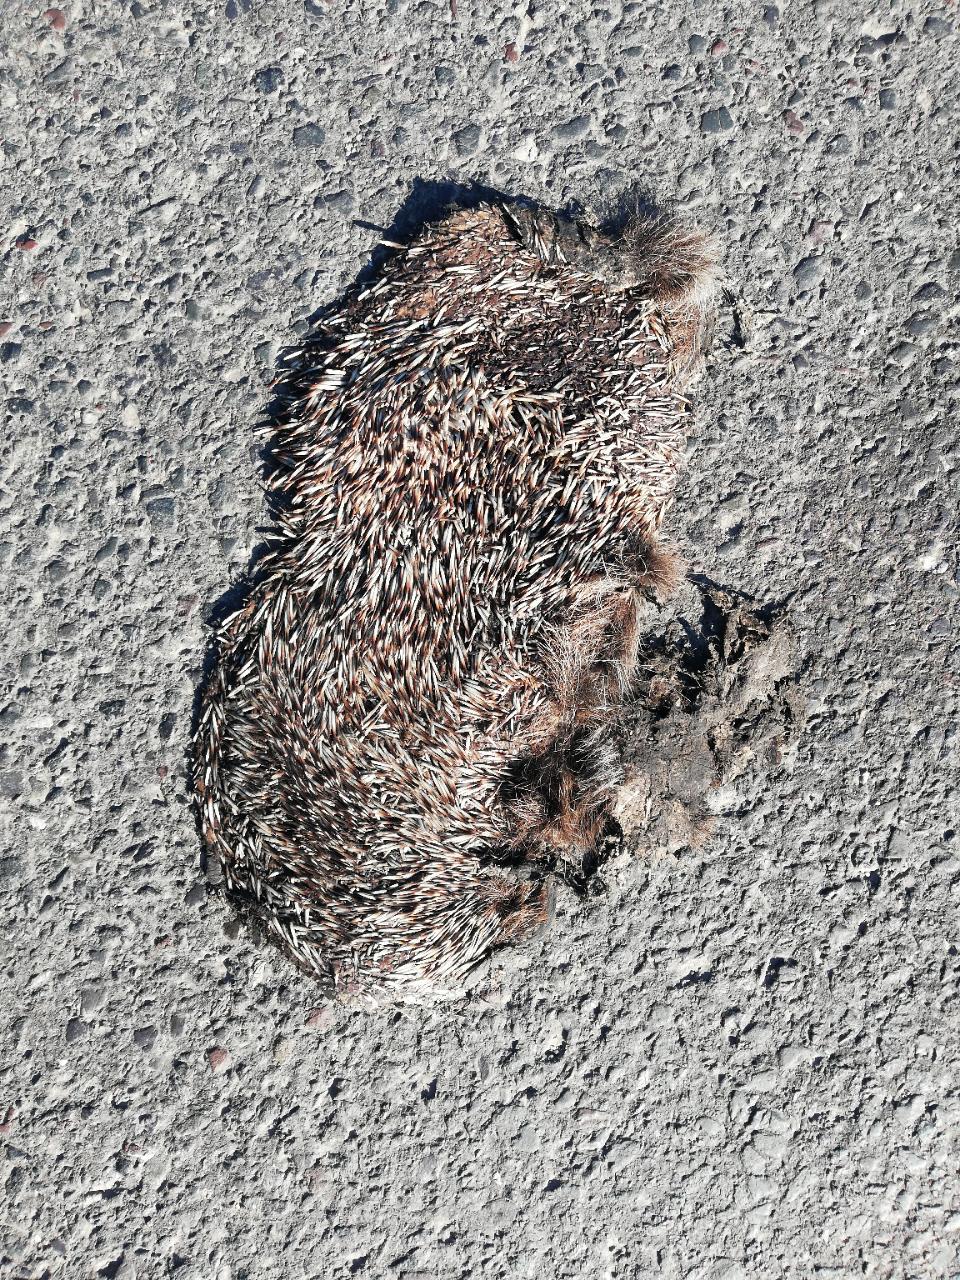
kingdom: Animalia
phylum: Chordata
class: Mammalia
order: Erinaceomorpha
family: Erinaceidae
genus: Erinaceus
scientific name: Erinaceus
